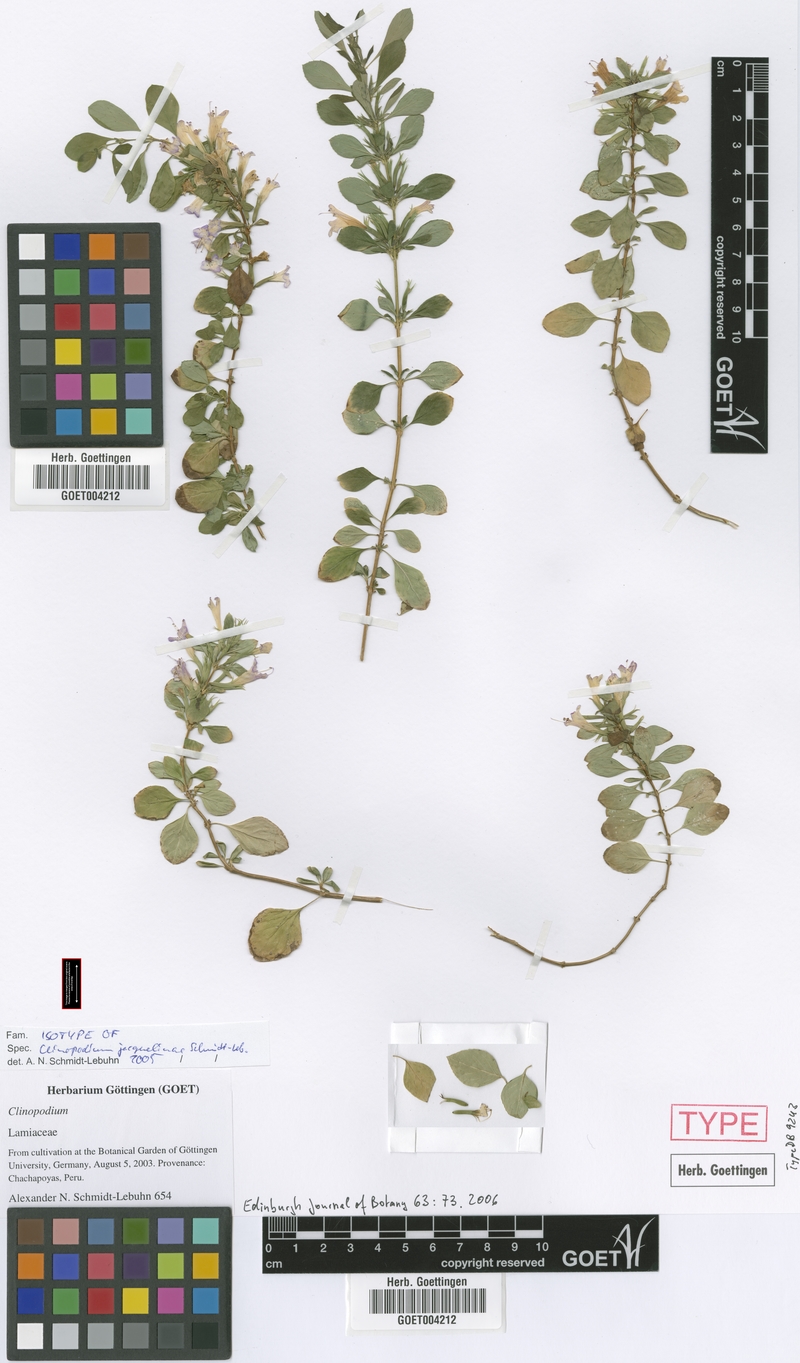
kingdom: Plantae
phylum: Tracheophyta
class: Magnoliopsida
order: Lamiales
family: Lamiaceae
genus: Clinopodium
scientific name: Clinopodium jacquelinae
